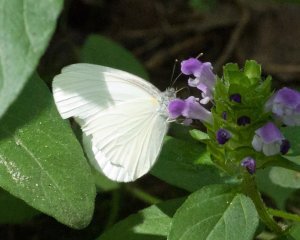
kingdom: Animalia
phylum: Arthropoda
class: Insecta
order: Lepidoptera
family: Pieridae
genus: Pieris
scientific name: Pieris oleracea
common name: Mustard White
